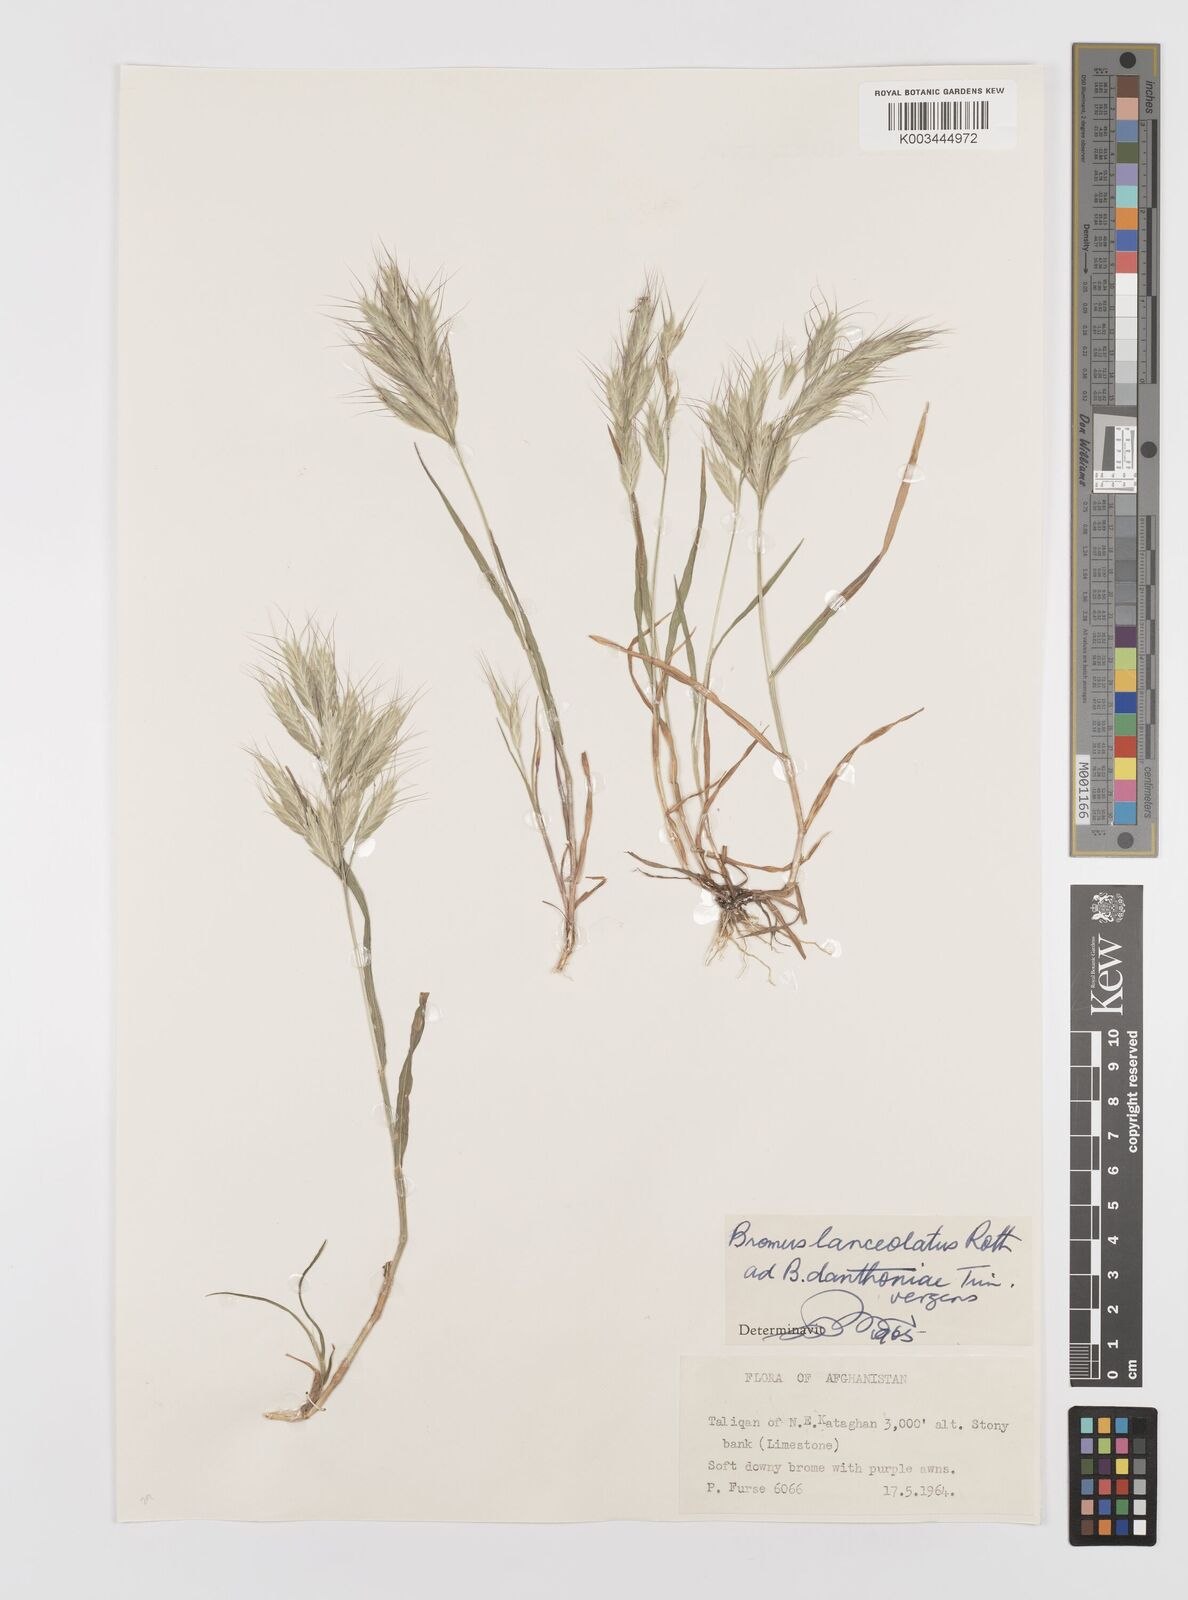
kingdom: Plantae
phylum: Tracheophyta
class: Liliopsida
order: Poales
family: Poaceae
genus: Bromus
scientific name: Bromus lanceolatus
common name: Mediterranean brome
